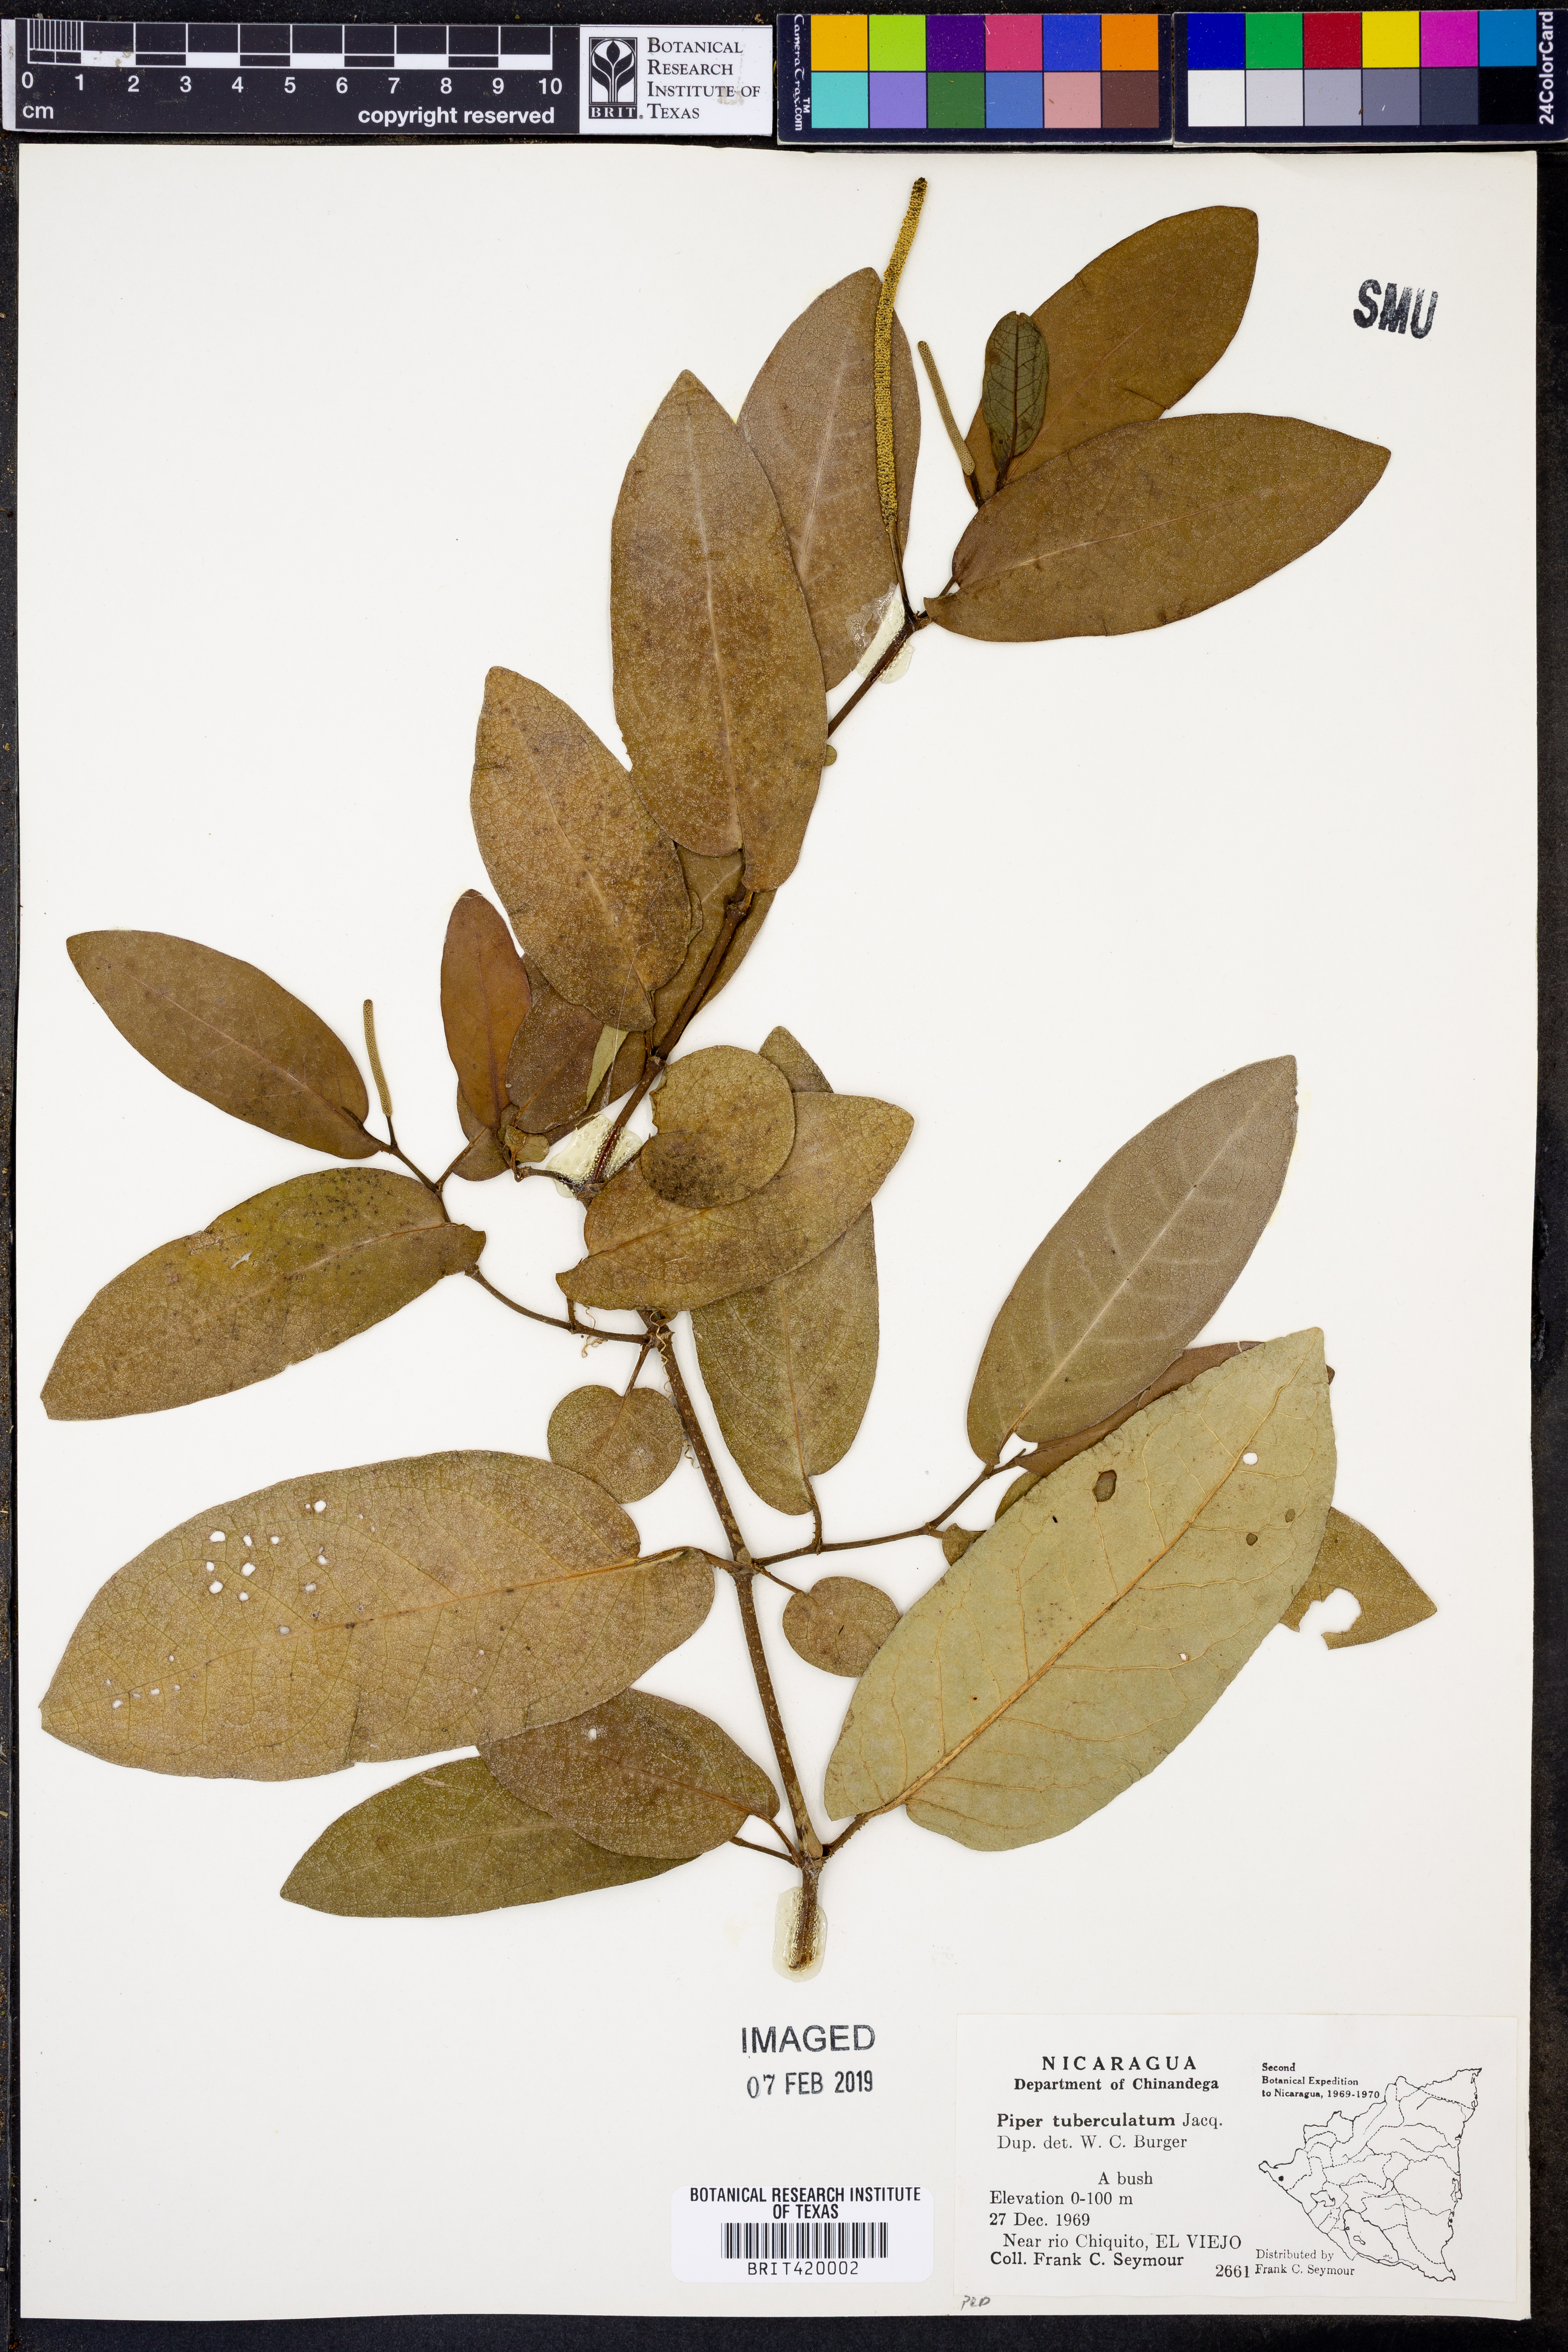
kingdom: Plantae
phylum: Tracheophyta
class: Magnoliopsida
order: Piperales
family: Piperaceae
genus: Piper
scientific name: Piper tuberculatum
